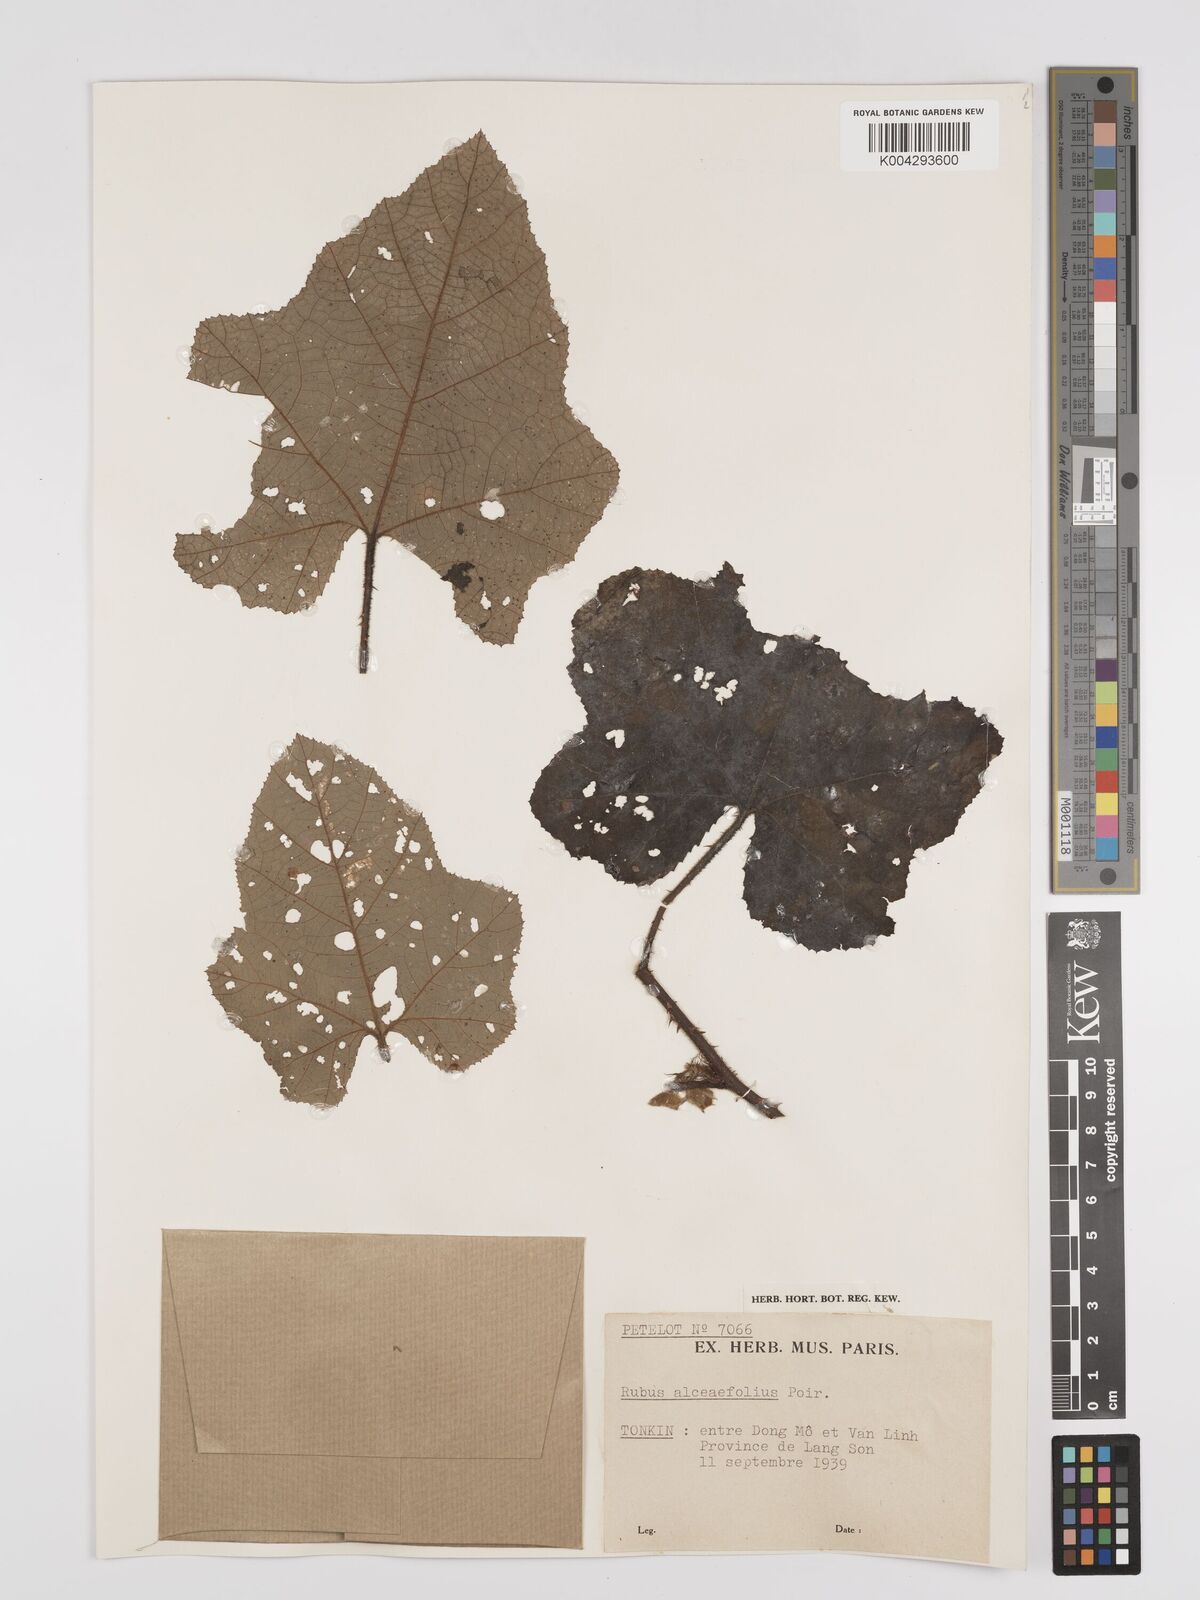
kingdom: Plantae
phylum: Tracheophyta
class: Magnoliopsida
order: Rosales
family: Rosaceae
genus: Rubus
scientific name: Rubus alceifolius
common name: Giant bramble
